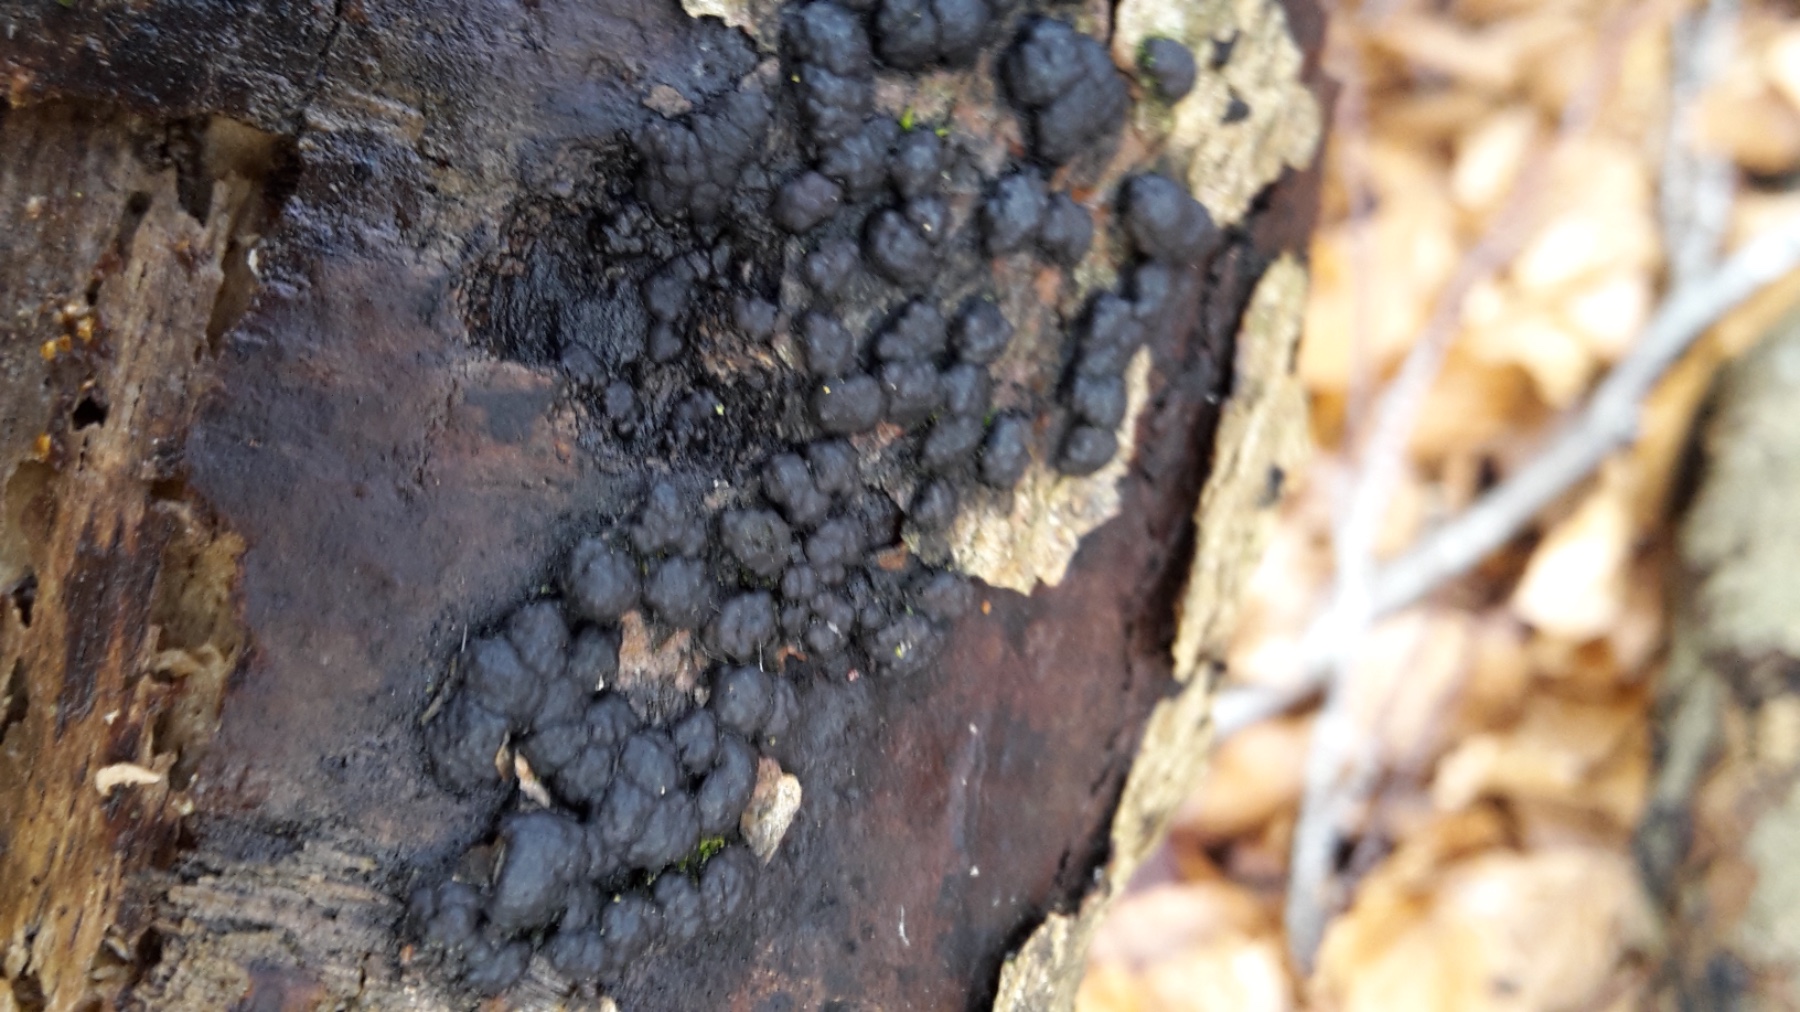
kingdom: Fungi
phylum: Ascomycota
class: Sordariomycetes
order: Xylariales
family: Hypoxylaceae
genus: Jackrogersella
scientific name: Jackrogersella cohaerens
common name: sammenflydende kulbær
